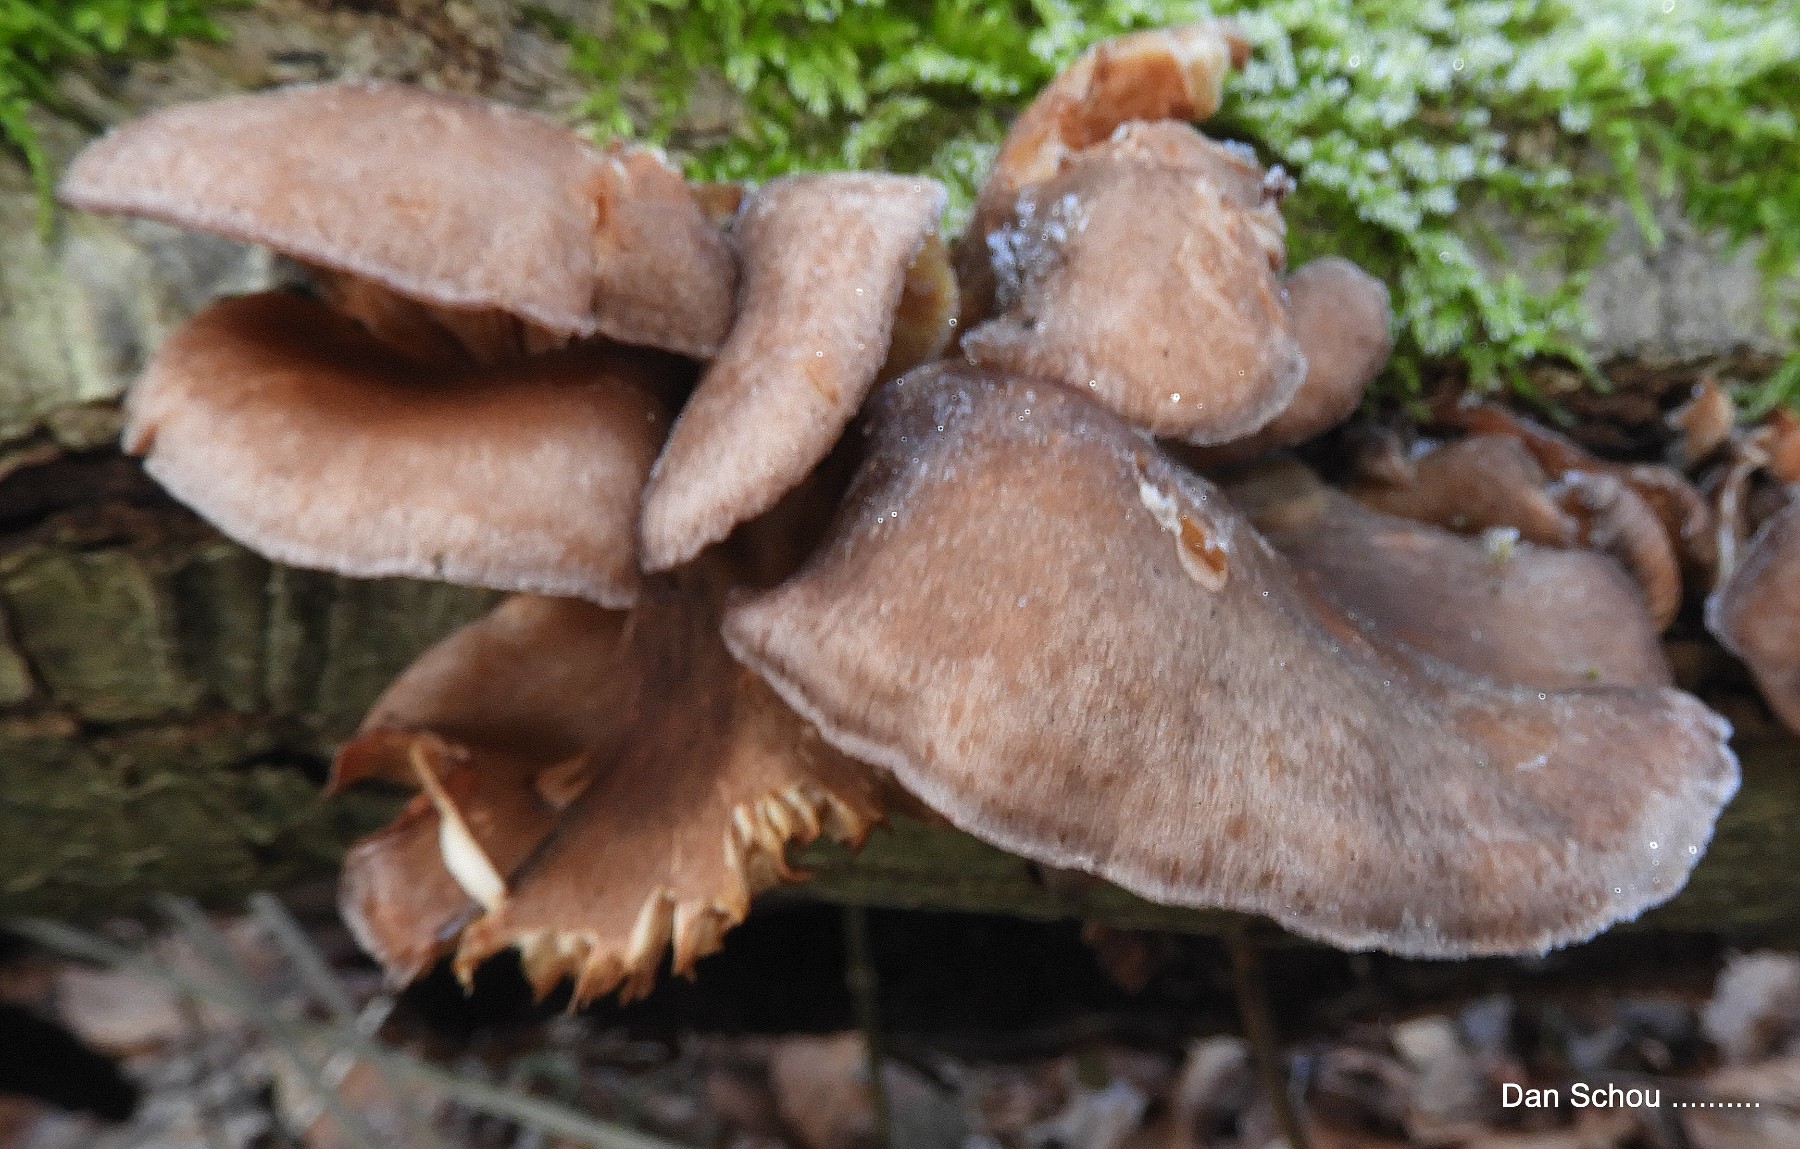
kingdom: Fungi
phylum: Basidiomycota
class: Agaricomycetes
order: Agaricales
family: Sarcomyxaceae
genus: Sarcomyxa
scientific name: Sarcomyxa serotina
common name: gummihat
